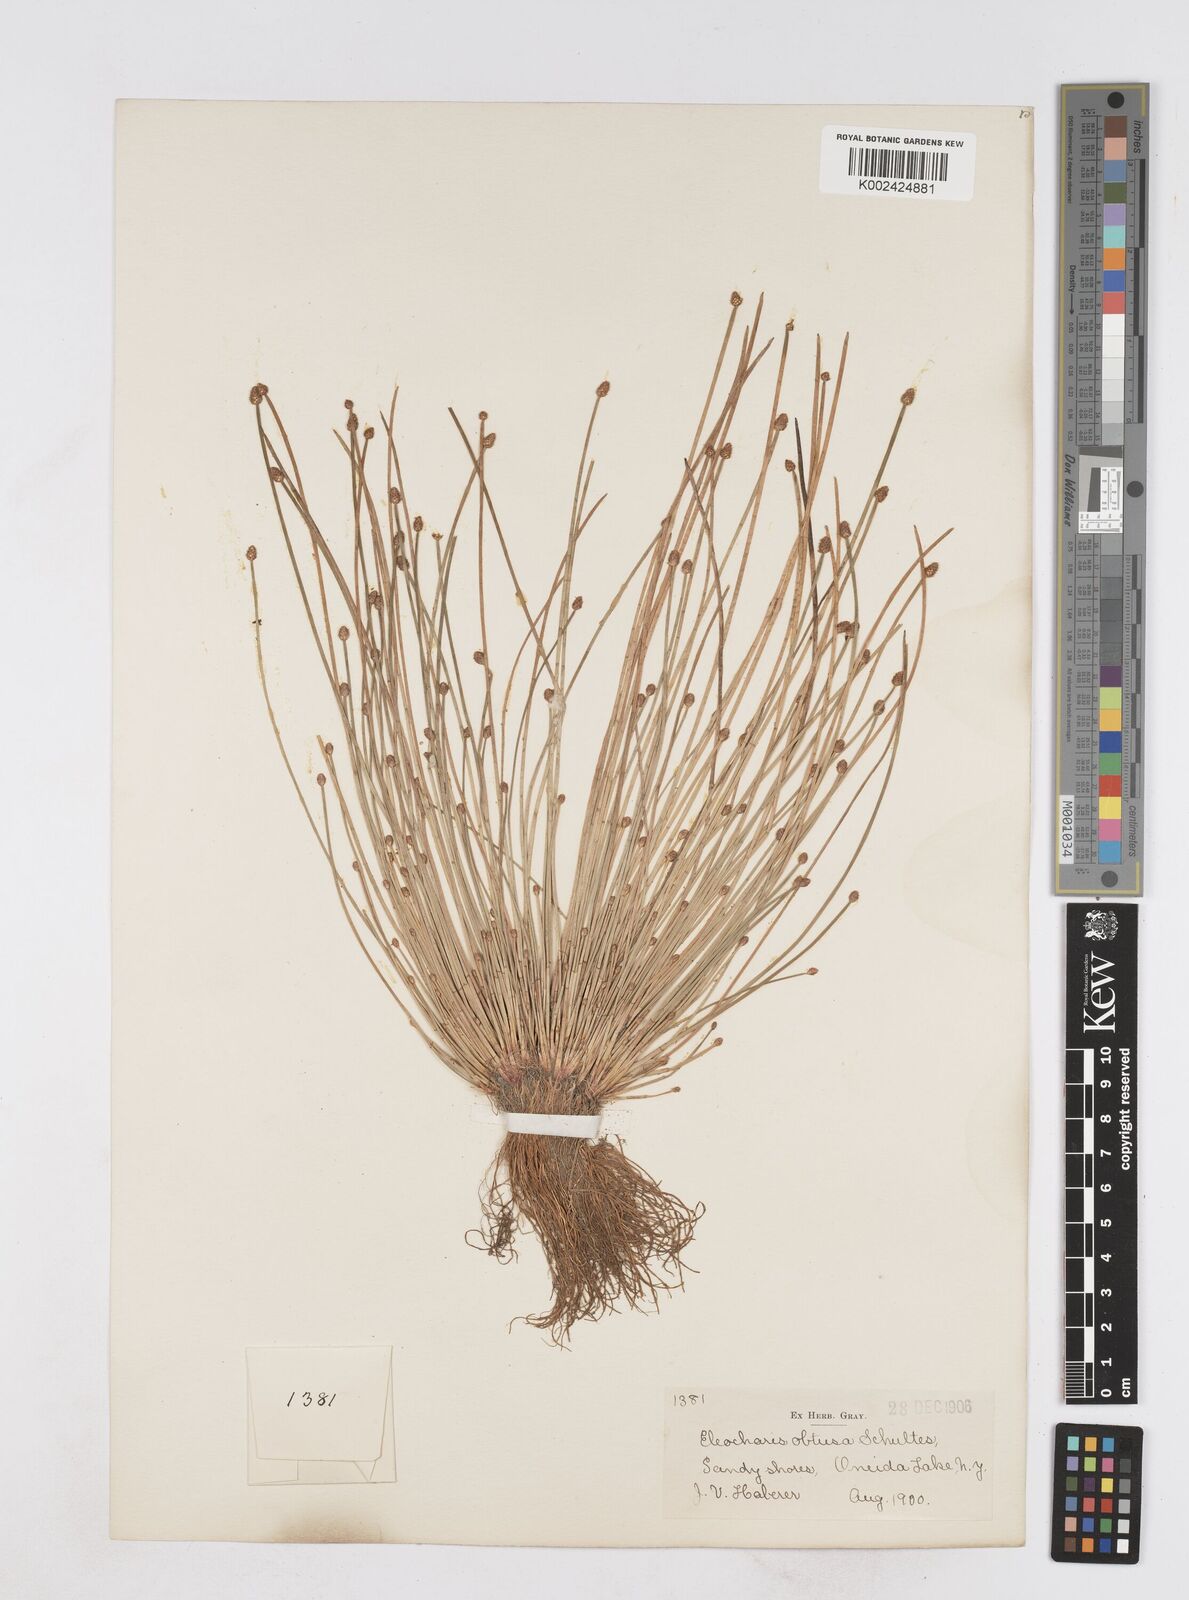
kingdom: Plantae
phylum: Tracheophyta
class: Liliopsida
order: Poales
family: Cyperaceae
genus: Eleocharis
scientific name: Eleocharis obtusa
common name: Blunt spikerush
